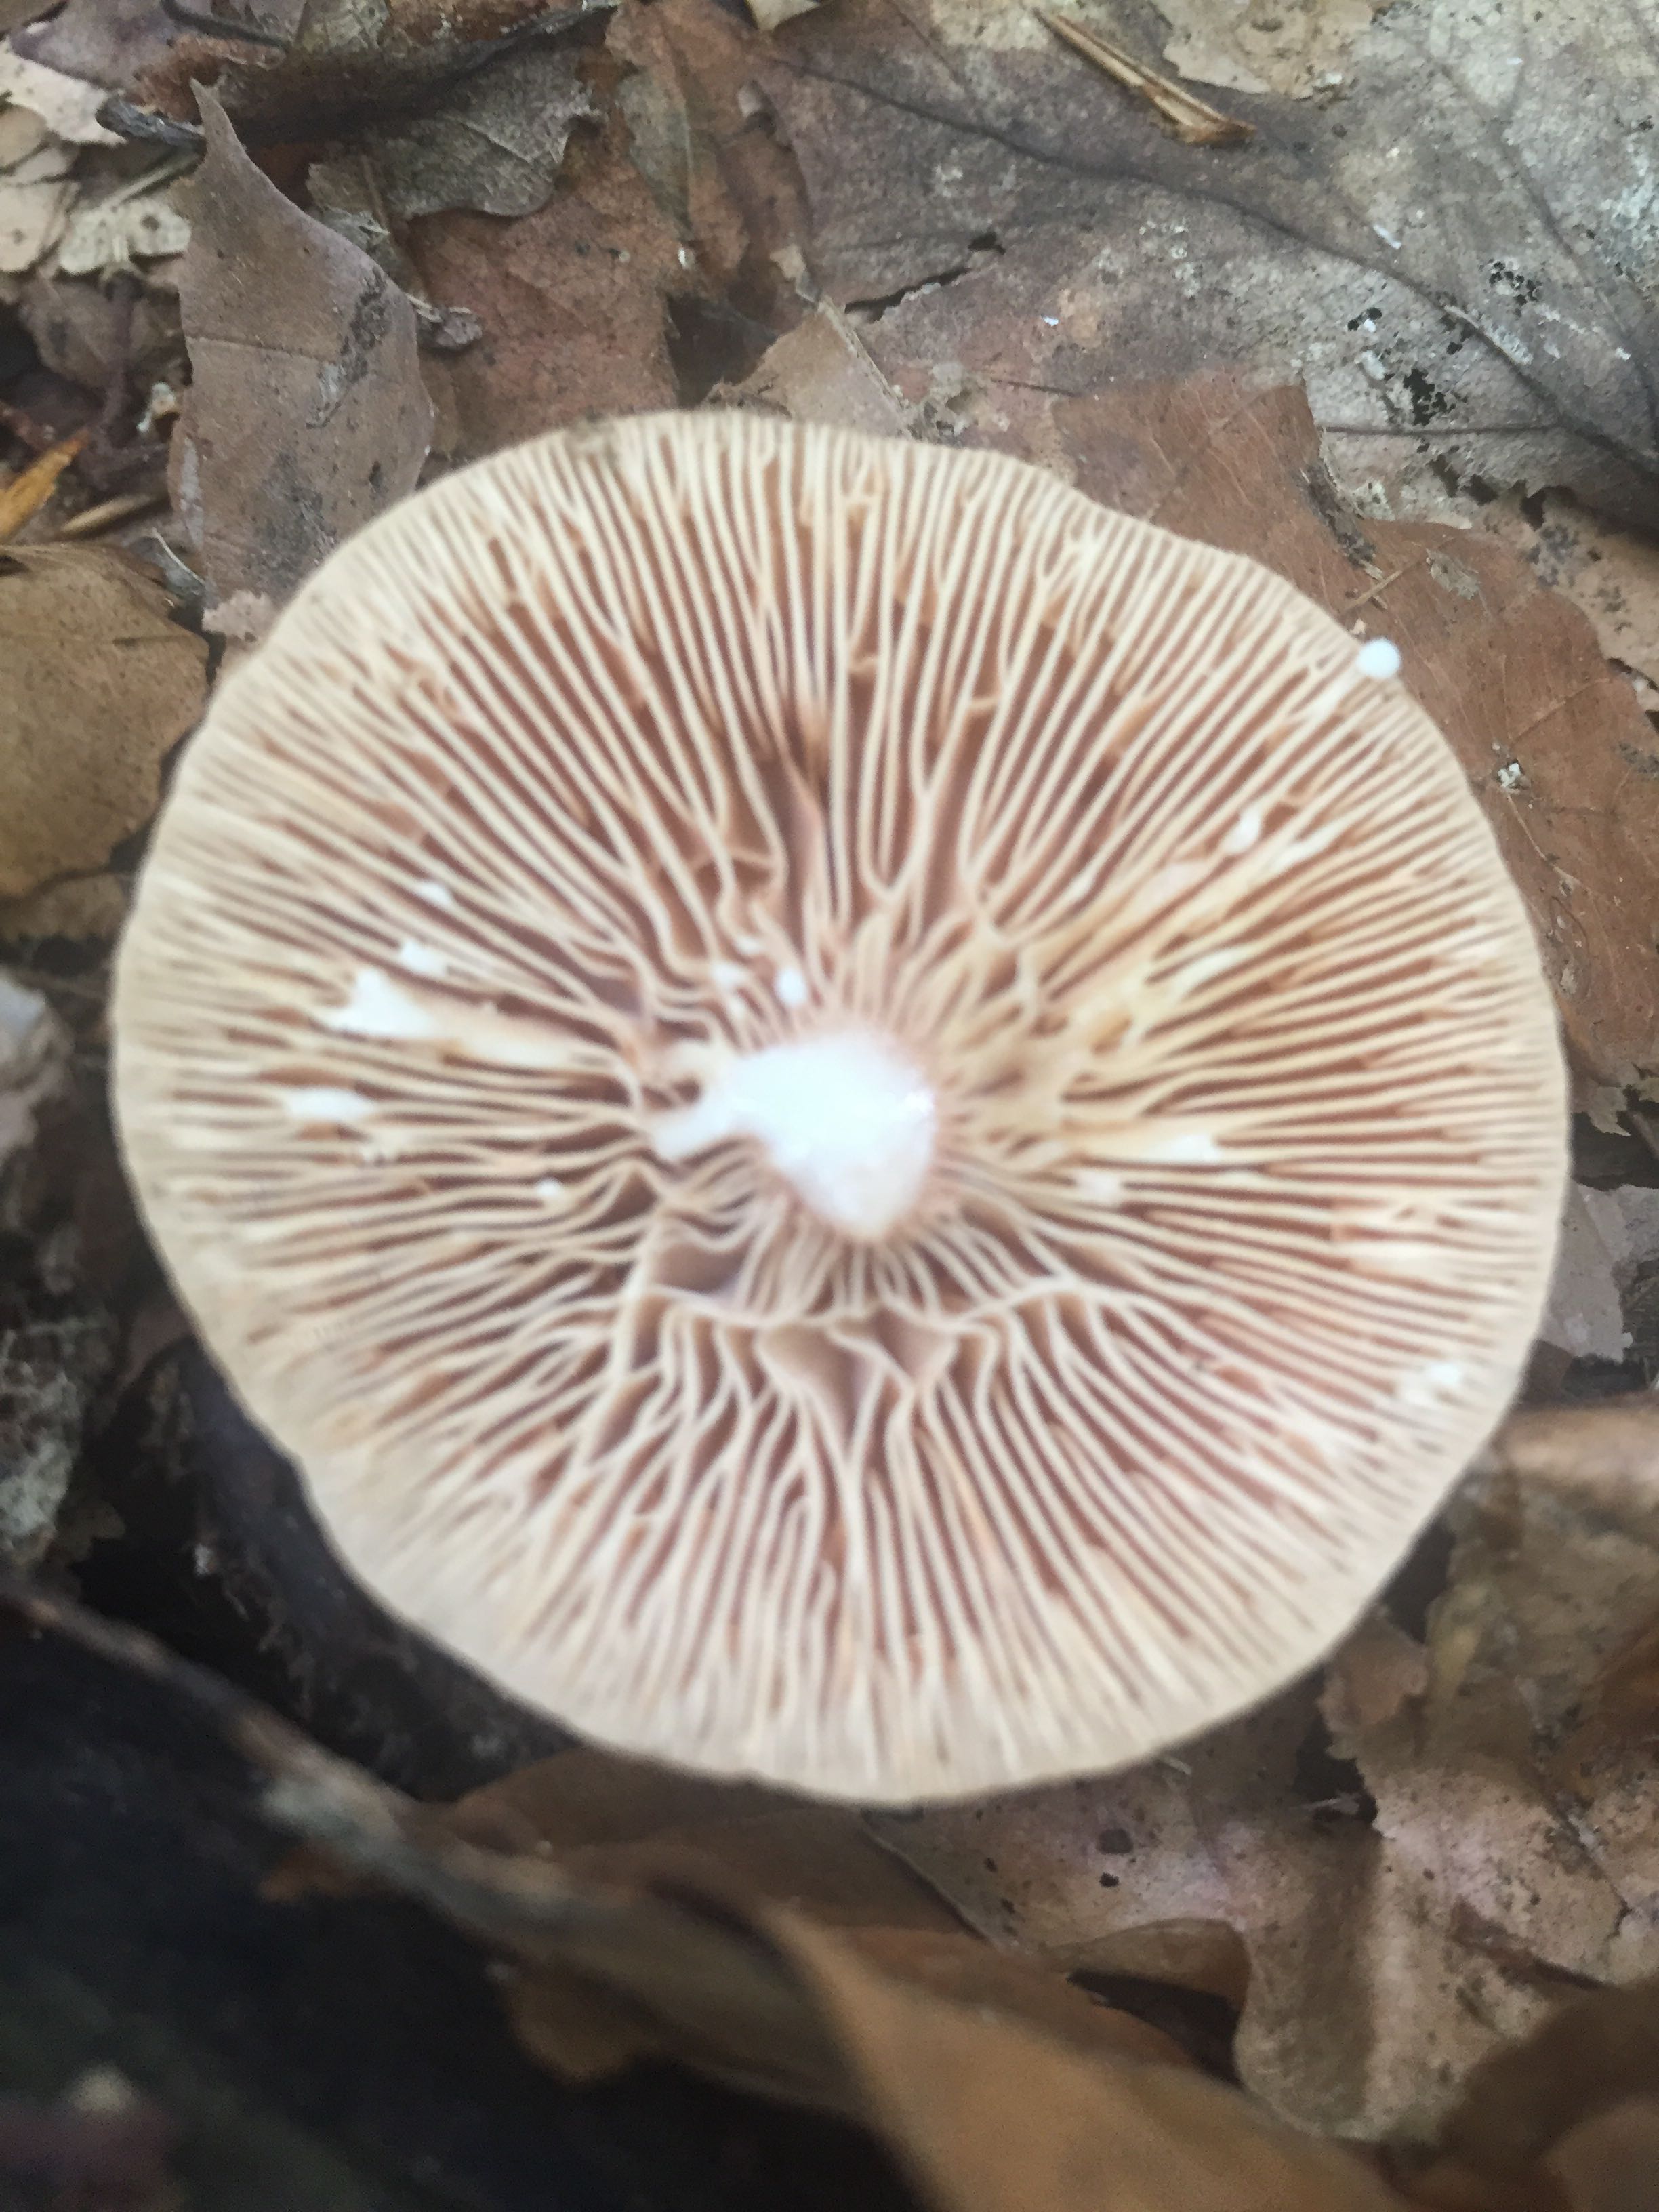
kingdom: Fungi
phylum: Basidiomycota
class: Agaricomycetes
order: Russulales
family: Russulaceae
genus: Lactarius
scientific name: Lactarius tabidus
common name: rynket mælkehat
